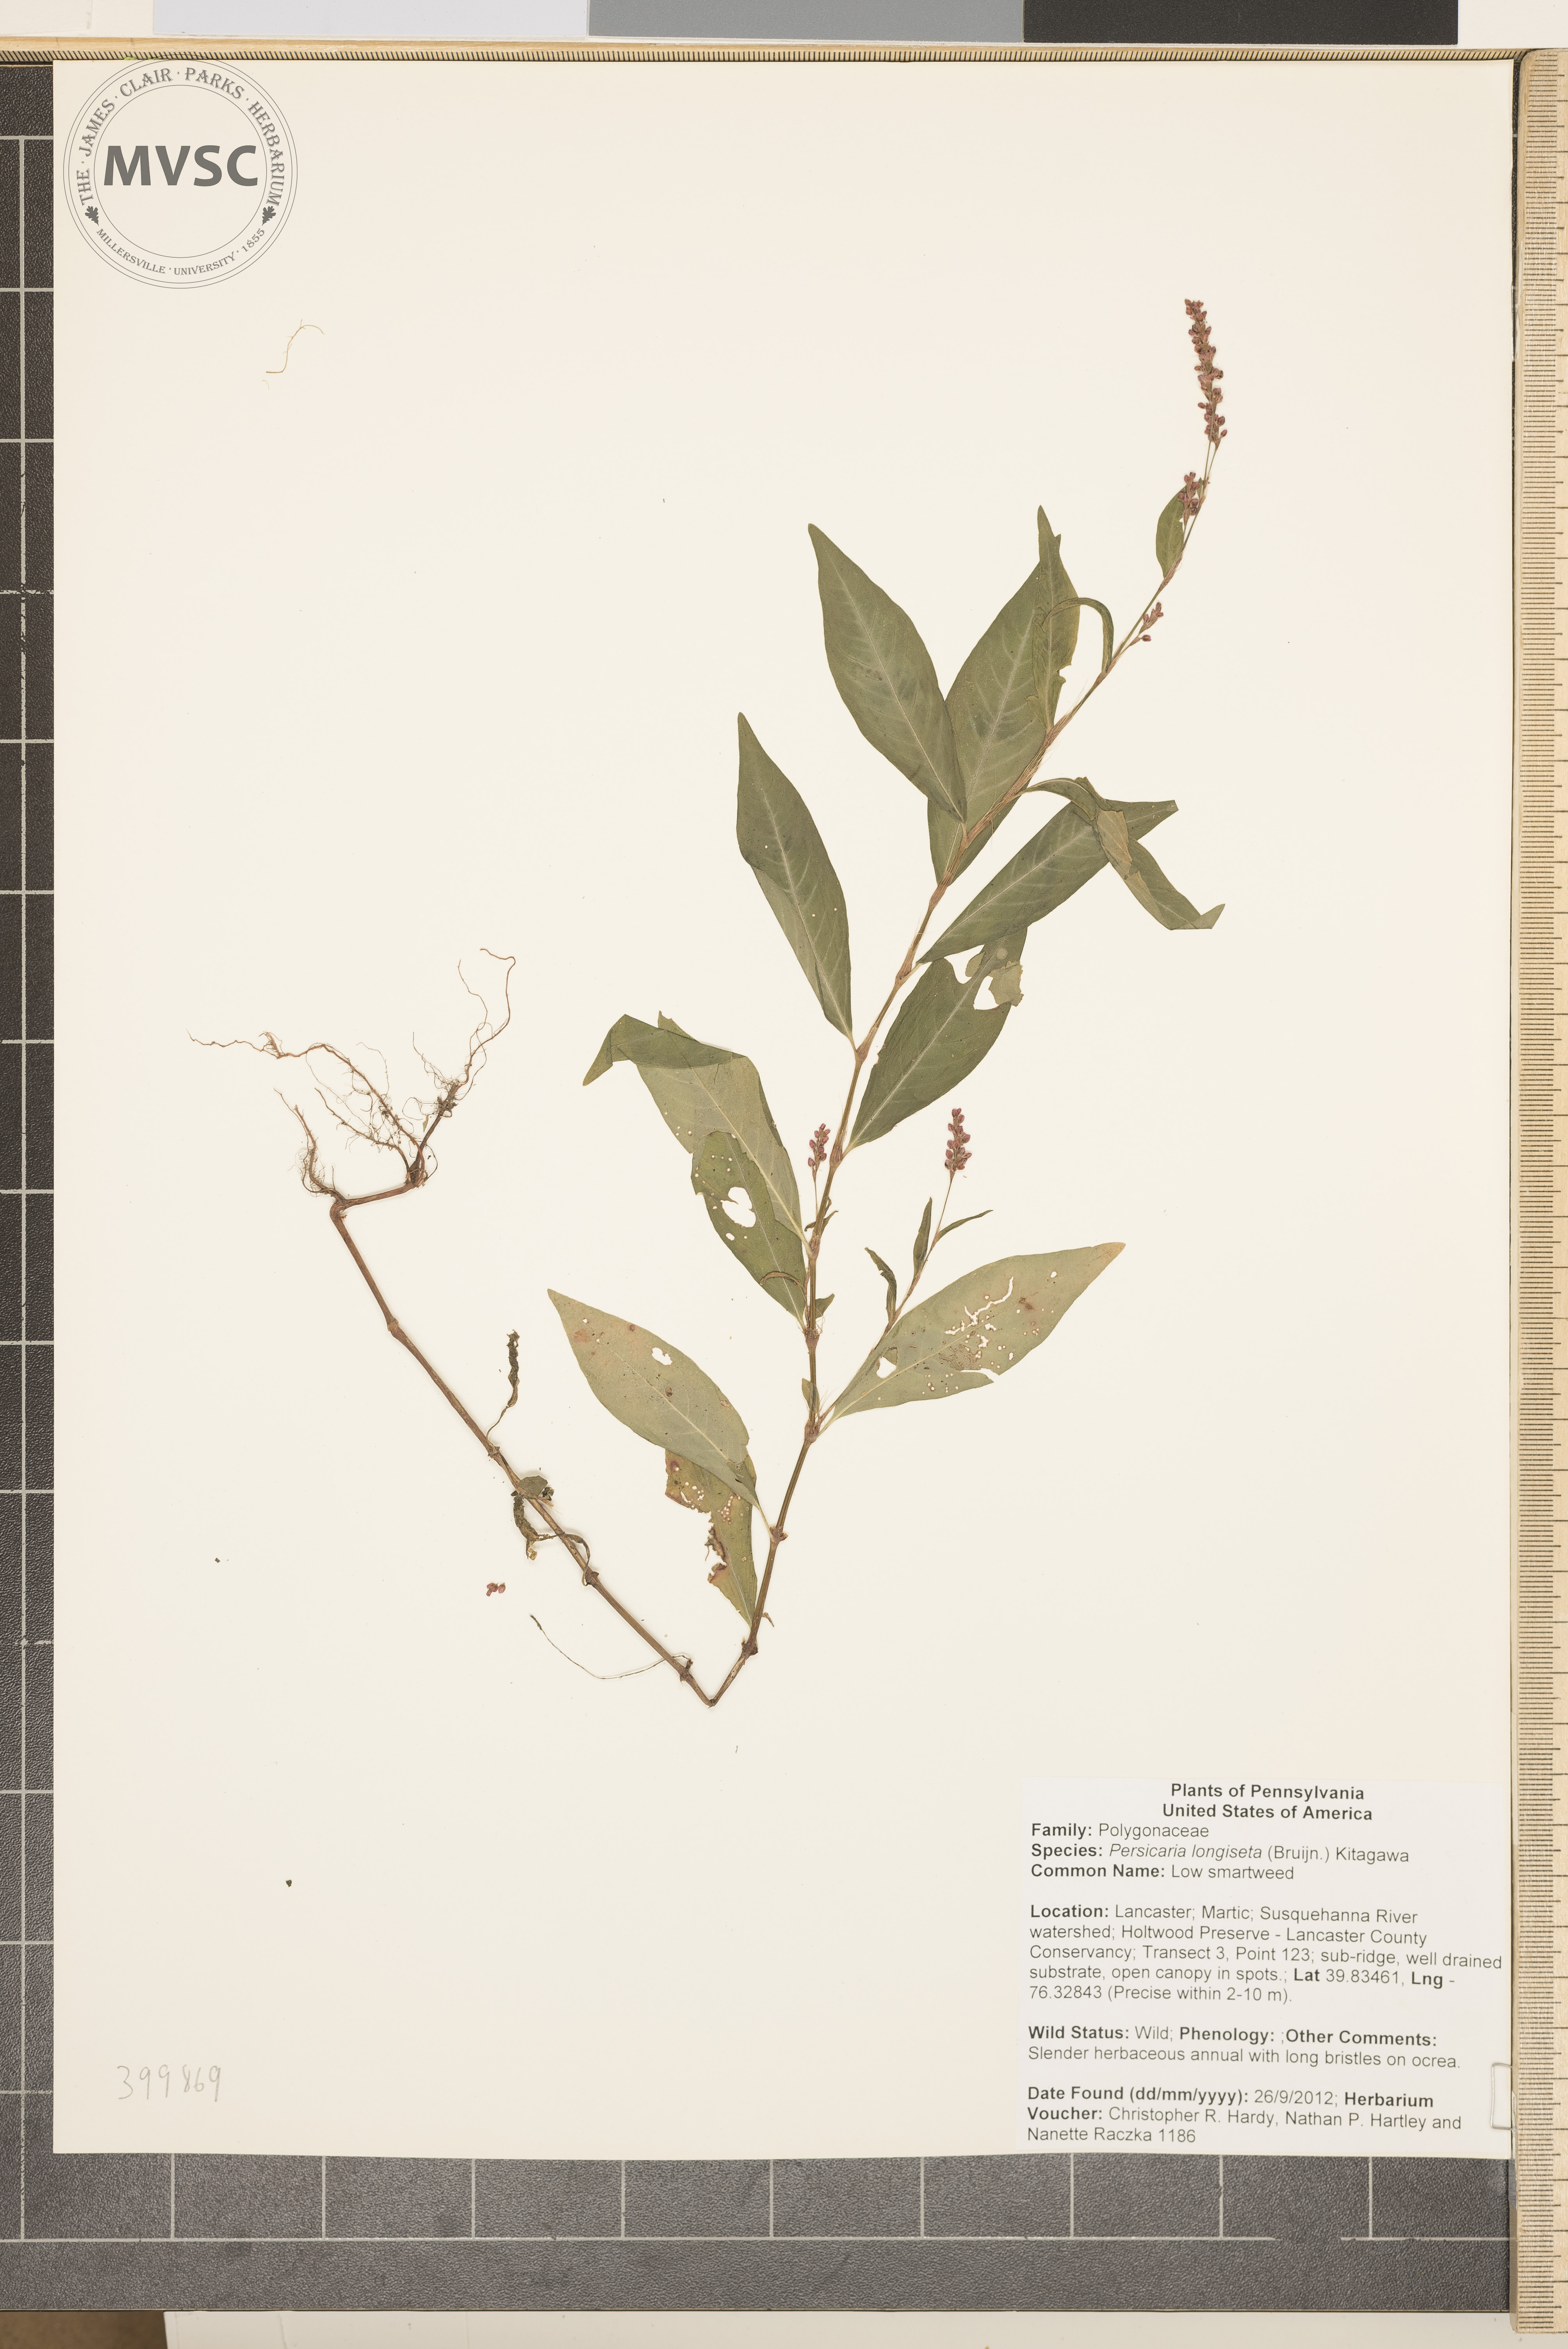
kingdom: Plantae
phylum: Tracheophyta
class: Magnoliopsida
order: Caryophyllales
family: Polygonaceae
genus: Persicaria
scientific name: Persicaria longiseta
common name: Low smartweed
